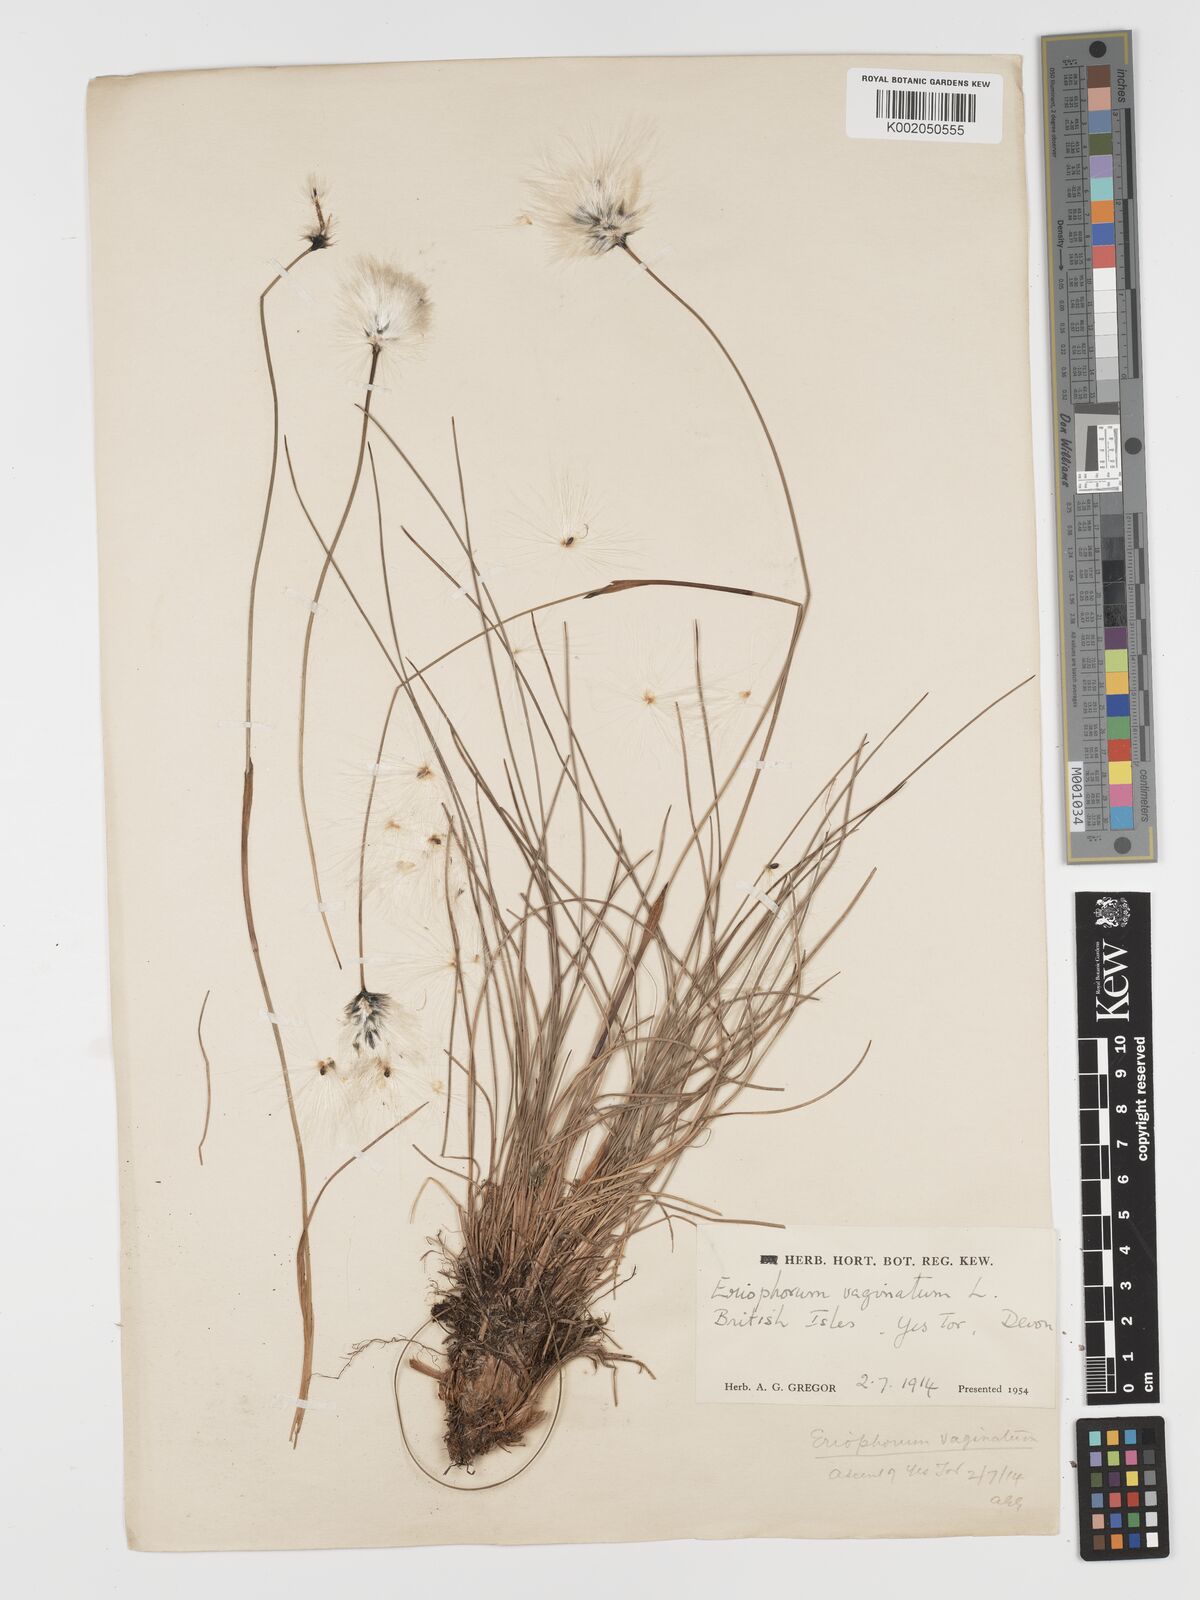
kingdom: Plantae
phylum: Tracheophyta
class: Liliopsida
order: Poales
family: Cyperaceae
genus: Eriophorum
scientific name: Eriophorum vaginatum
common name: Hare's-tail cottongrass
